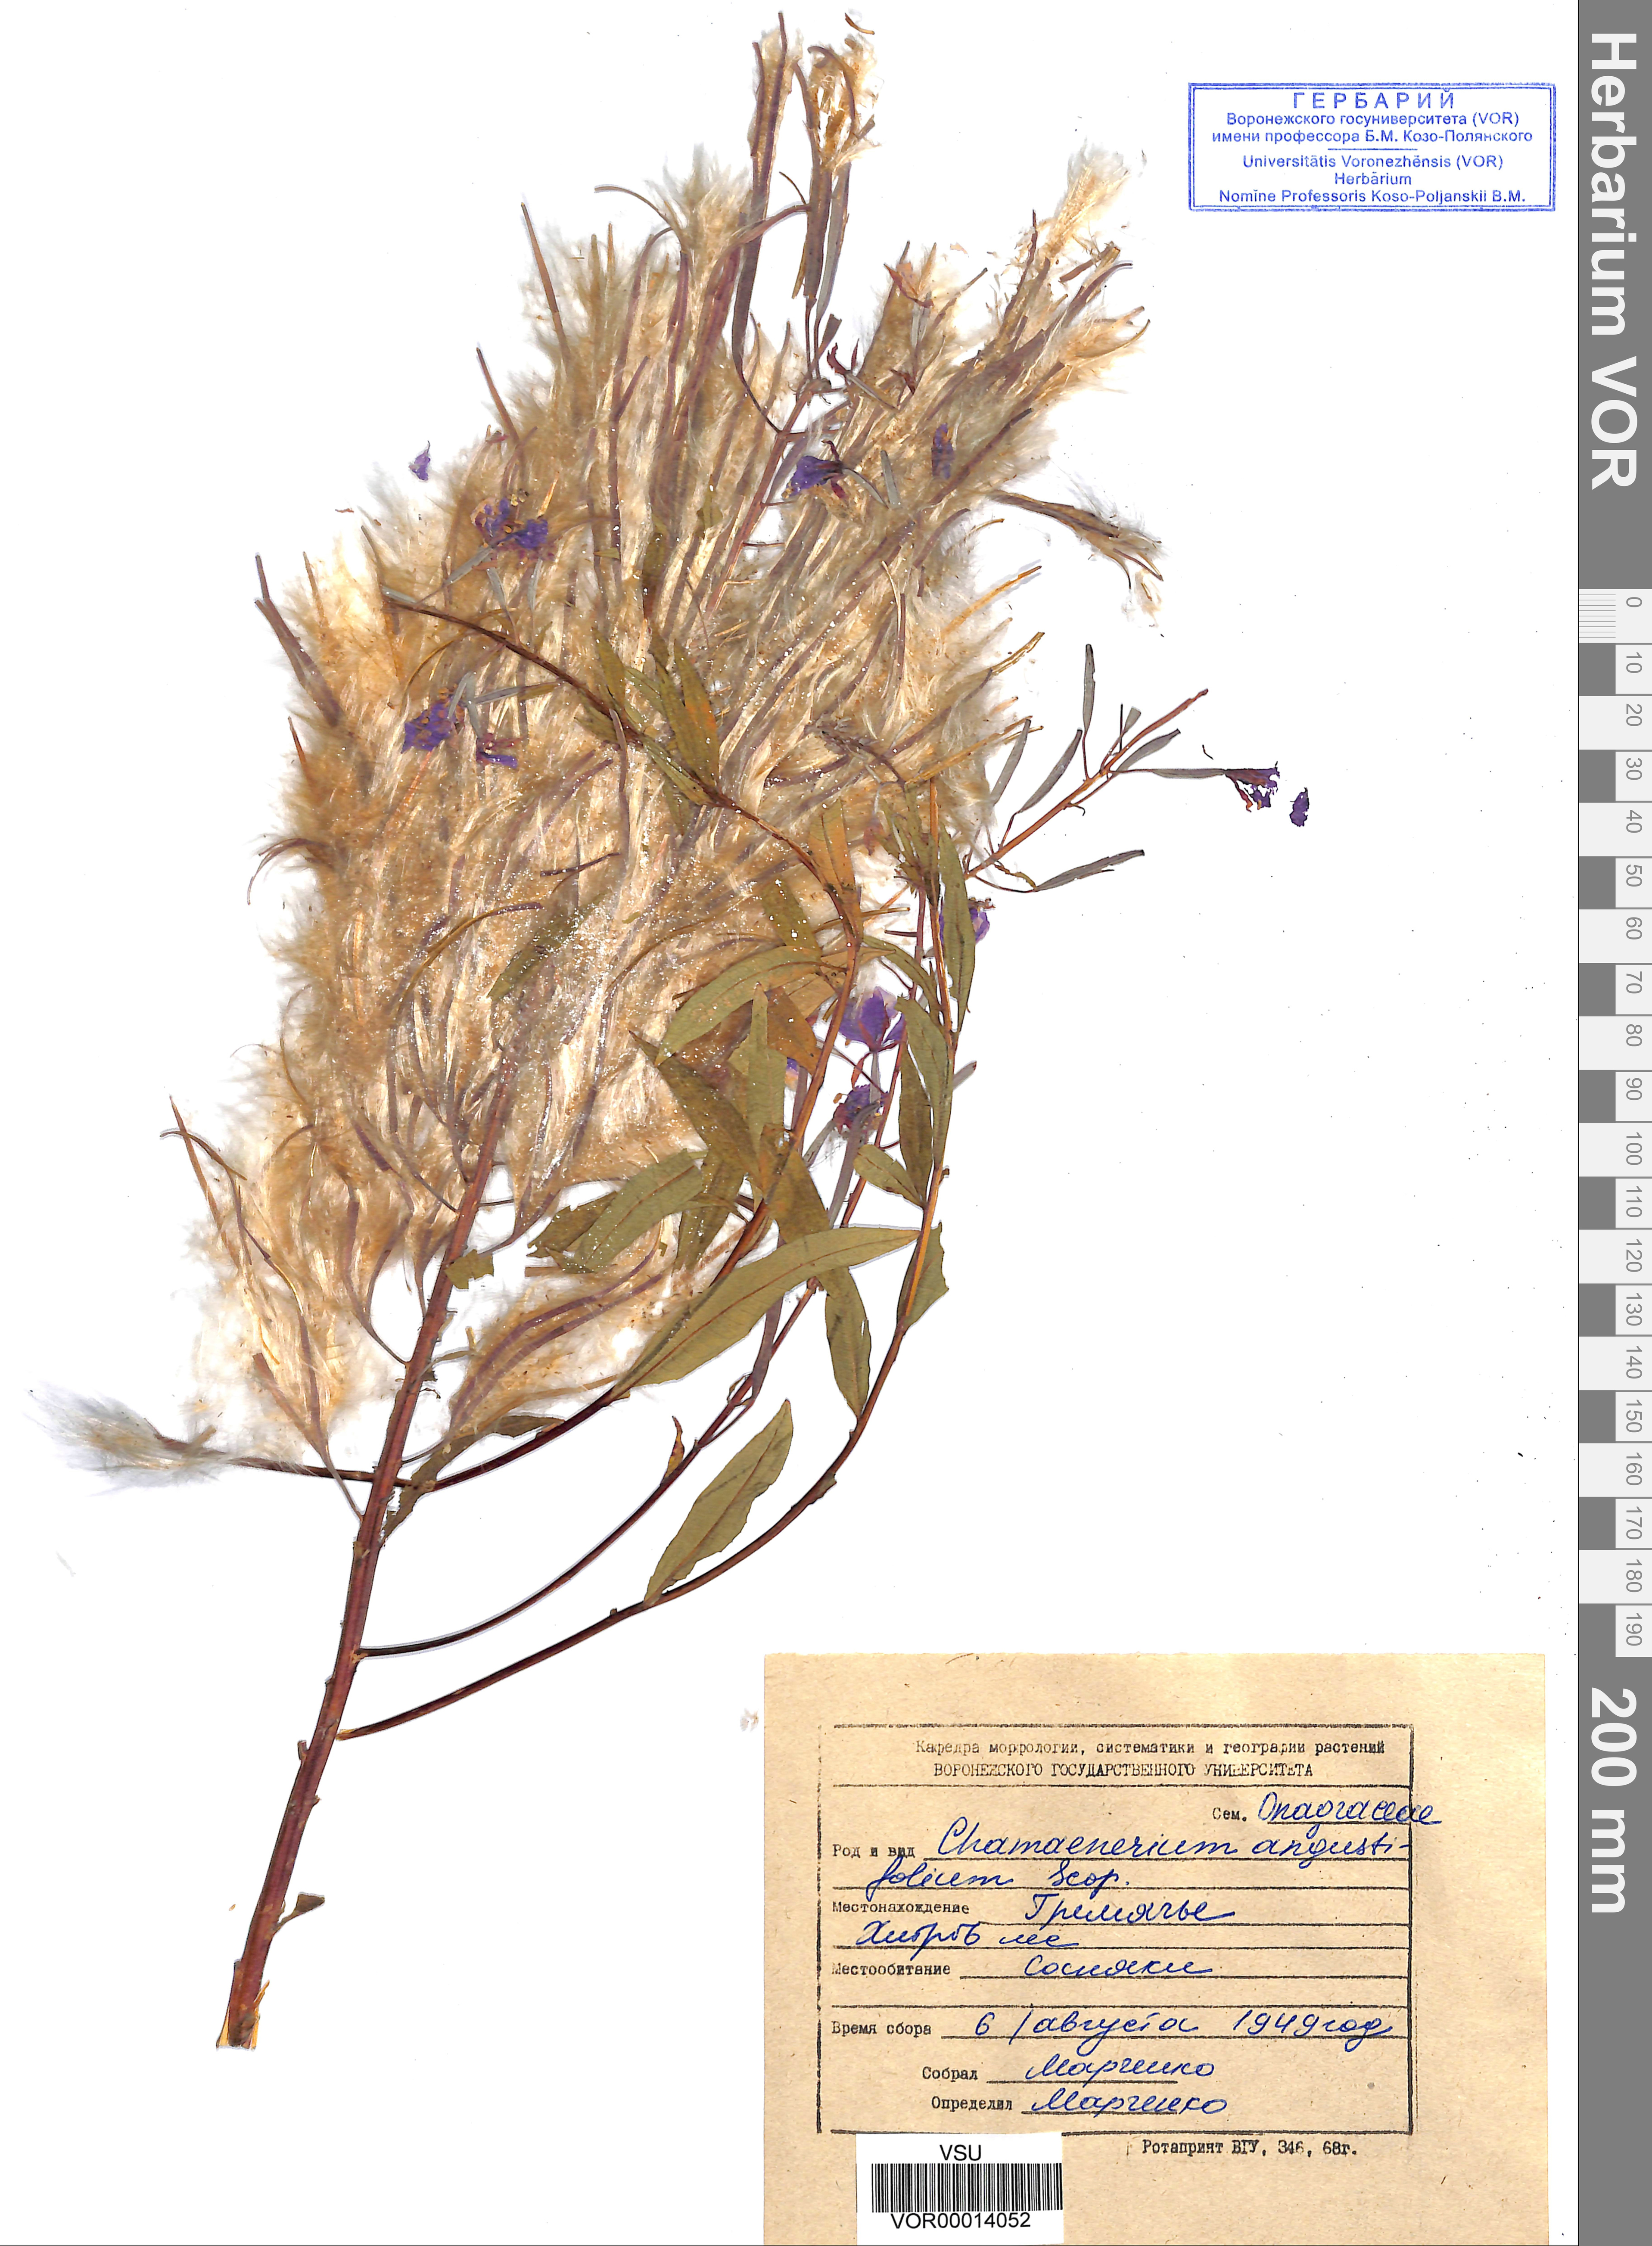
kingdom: Plantae
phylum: Tracheophyta
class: Magnoliopsida
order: Myrtales
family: Onagraceae
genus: Chamaenerion
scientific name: Chamaenerion angustifolium
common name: Fireweed
